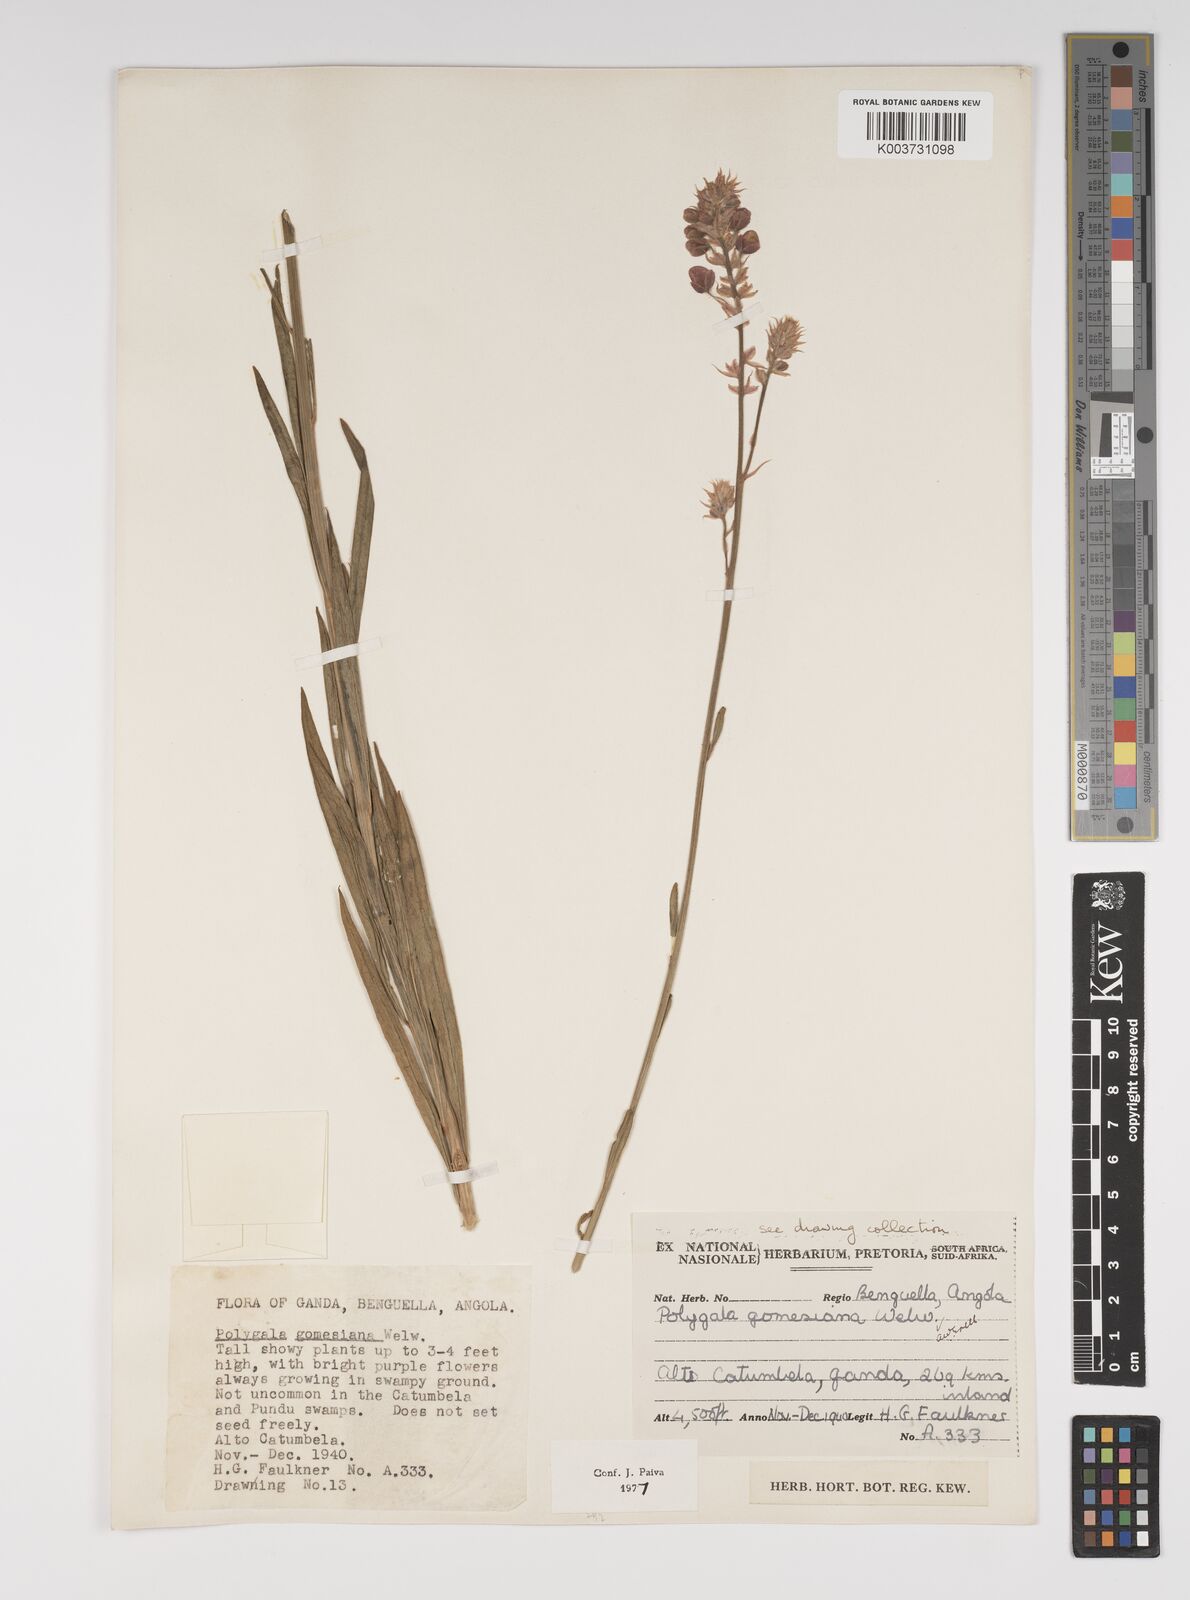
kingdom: Plantae
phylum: Tracheophyta
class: Magnoliopsida
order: Fabales
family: Polygalaceae
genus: Polygala
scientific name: Polygala gomesiana
